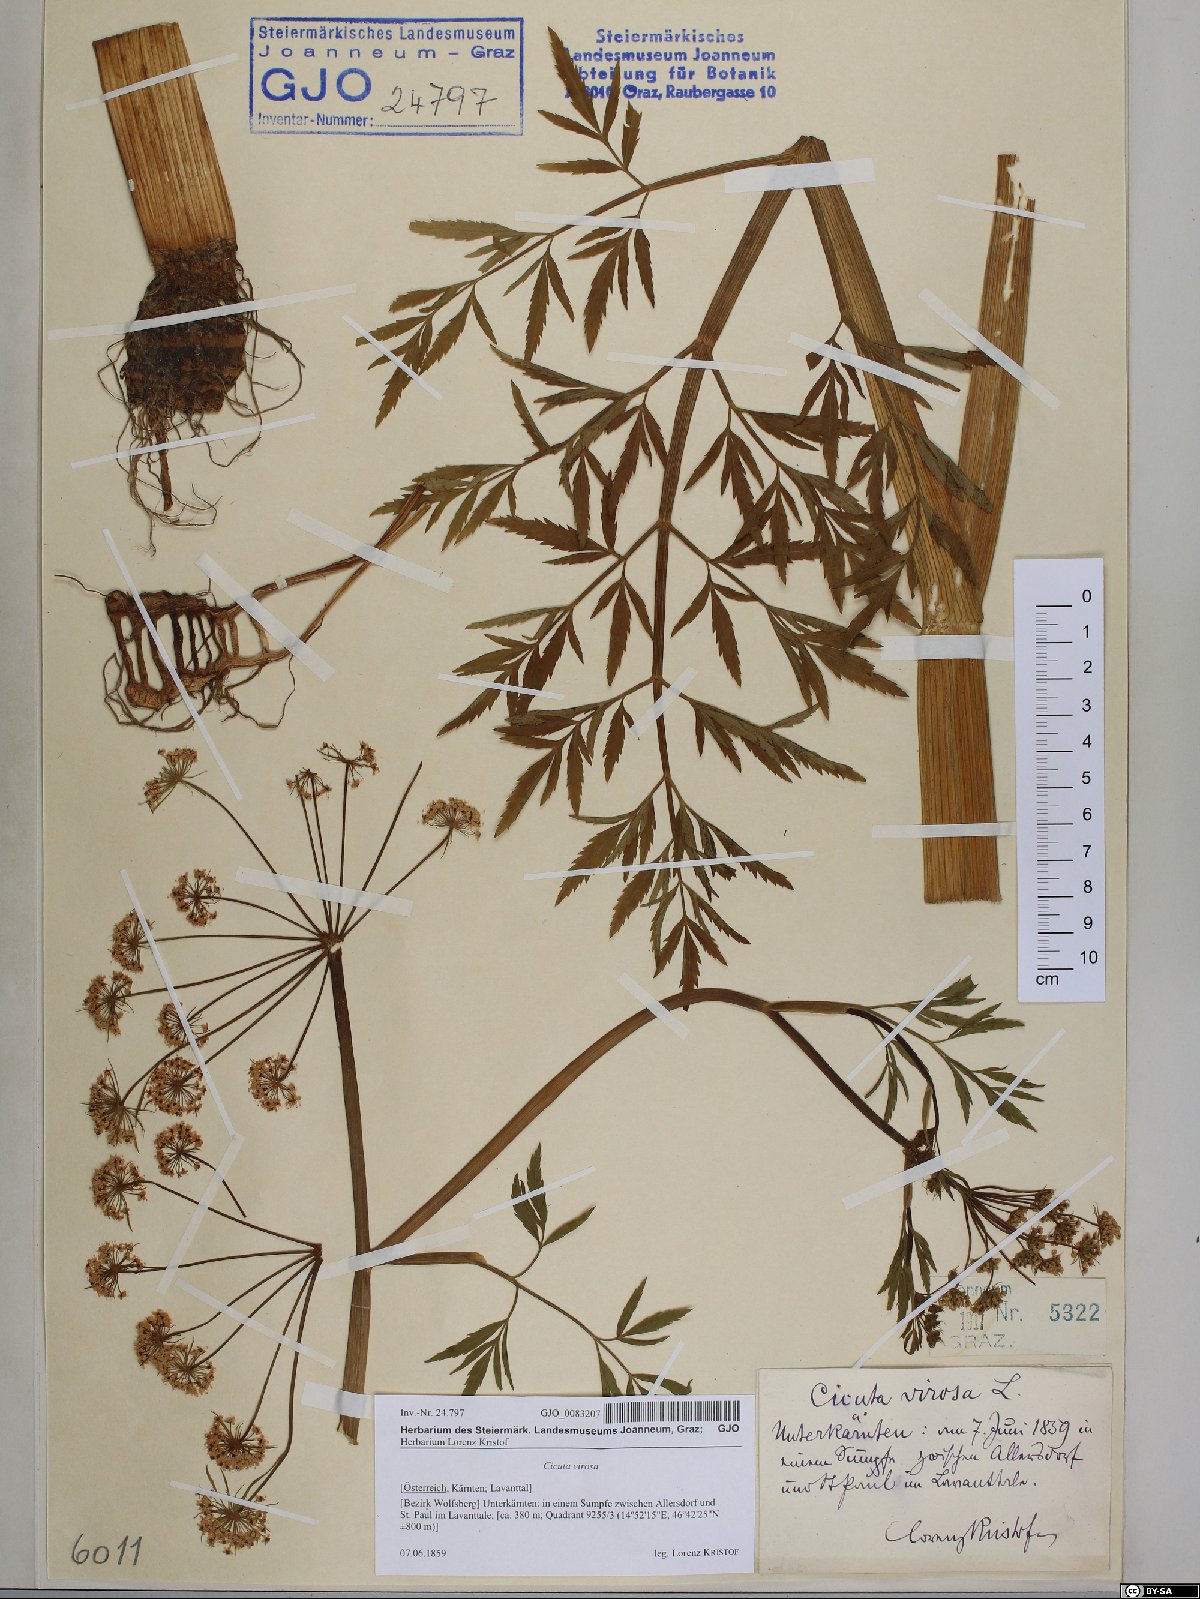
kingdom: Plantae
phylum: Tracheophyta
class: Magnoliopsida
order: Apiales
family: Apiaceae
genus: Cicuta
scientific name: Cicuta virosa
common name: Cowbane
